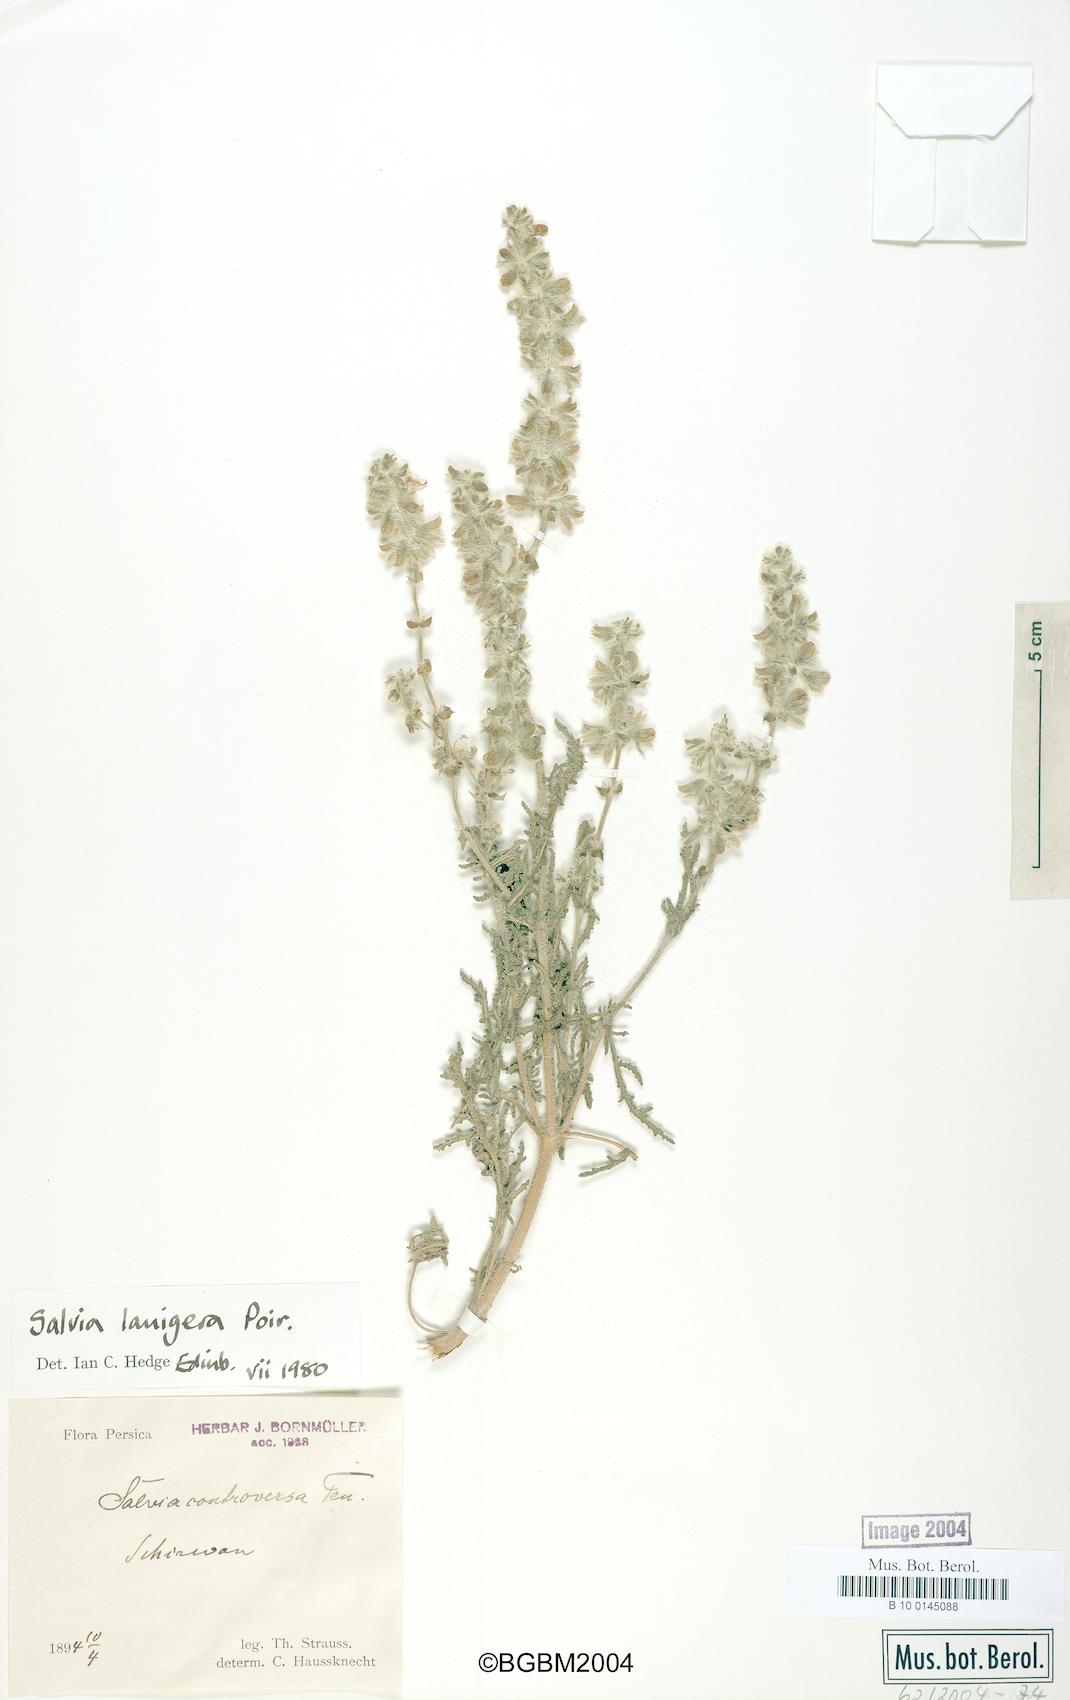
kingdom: Plantae
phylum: Tracheophyta
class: Magnoliopsida
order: Lamiales
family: Lamiaceae
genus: Salvia
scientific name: Salvia lanigera
